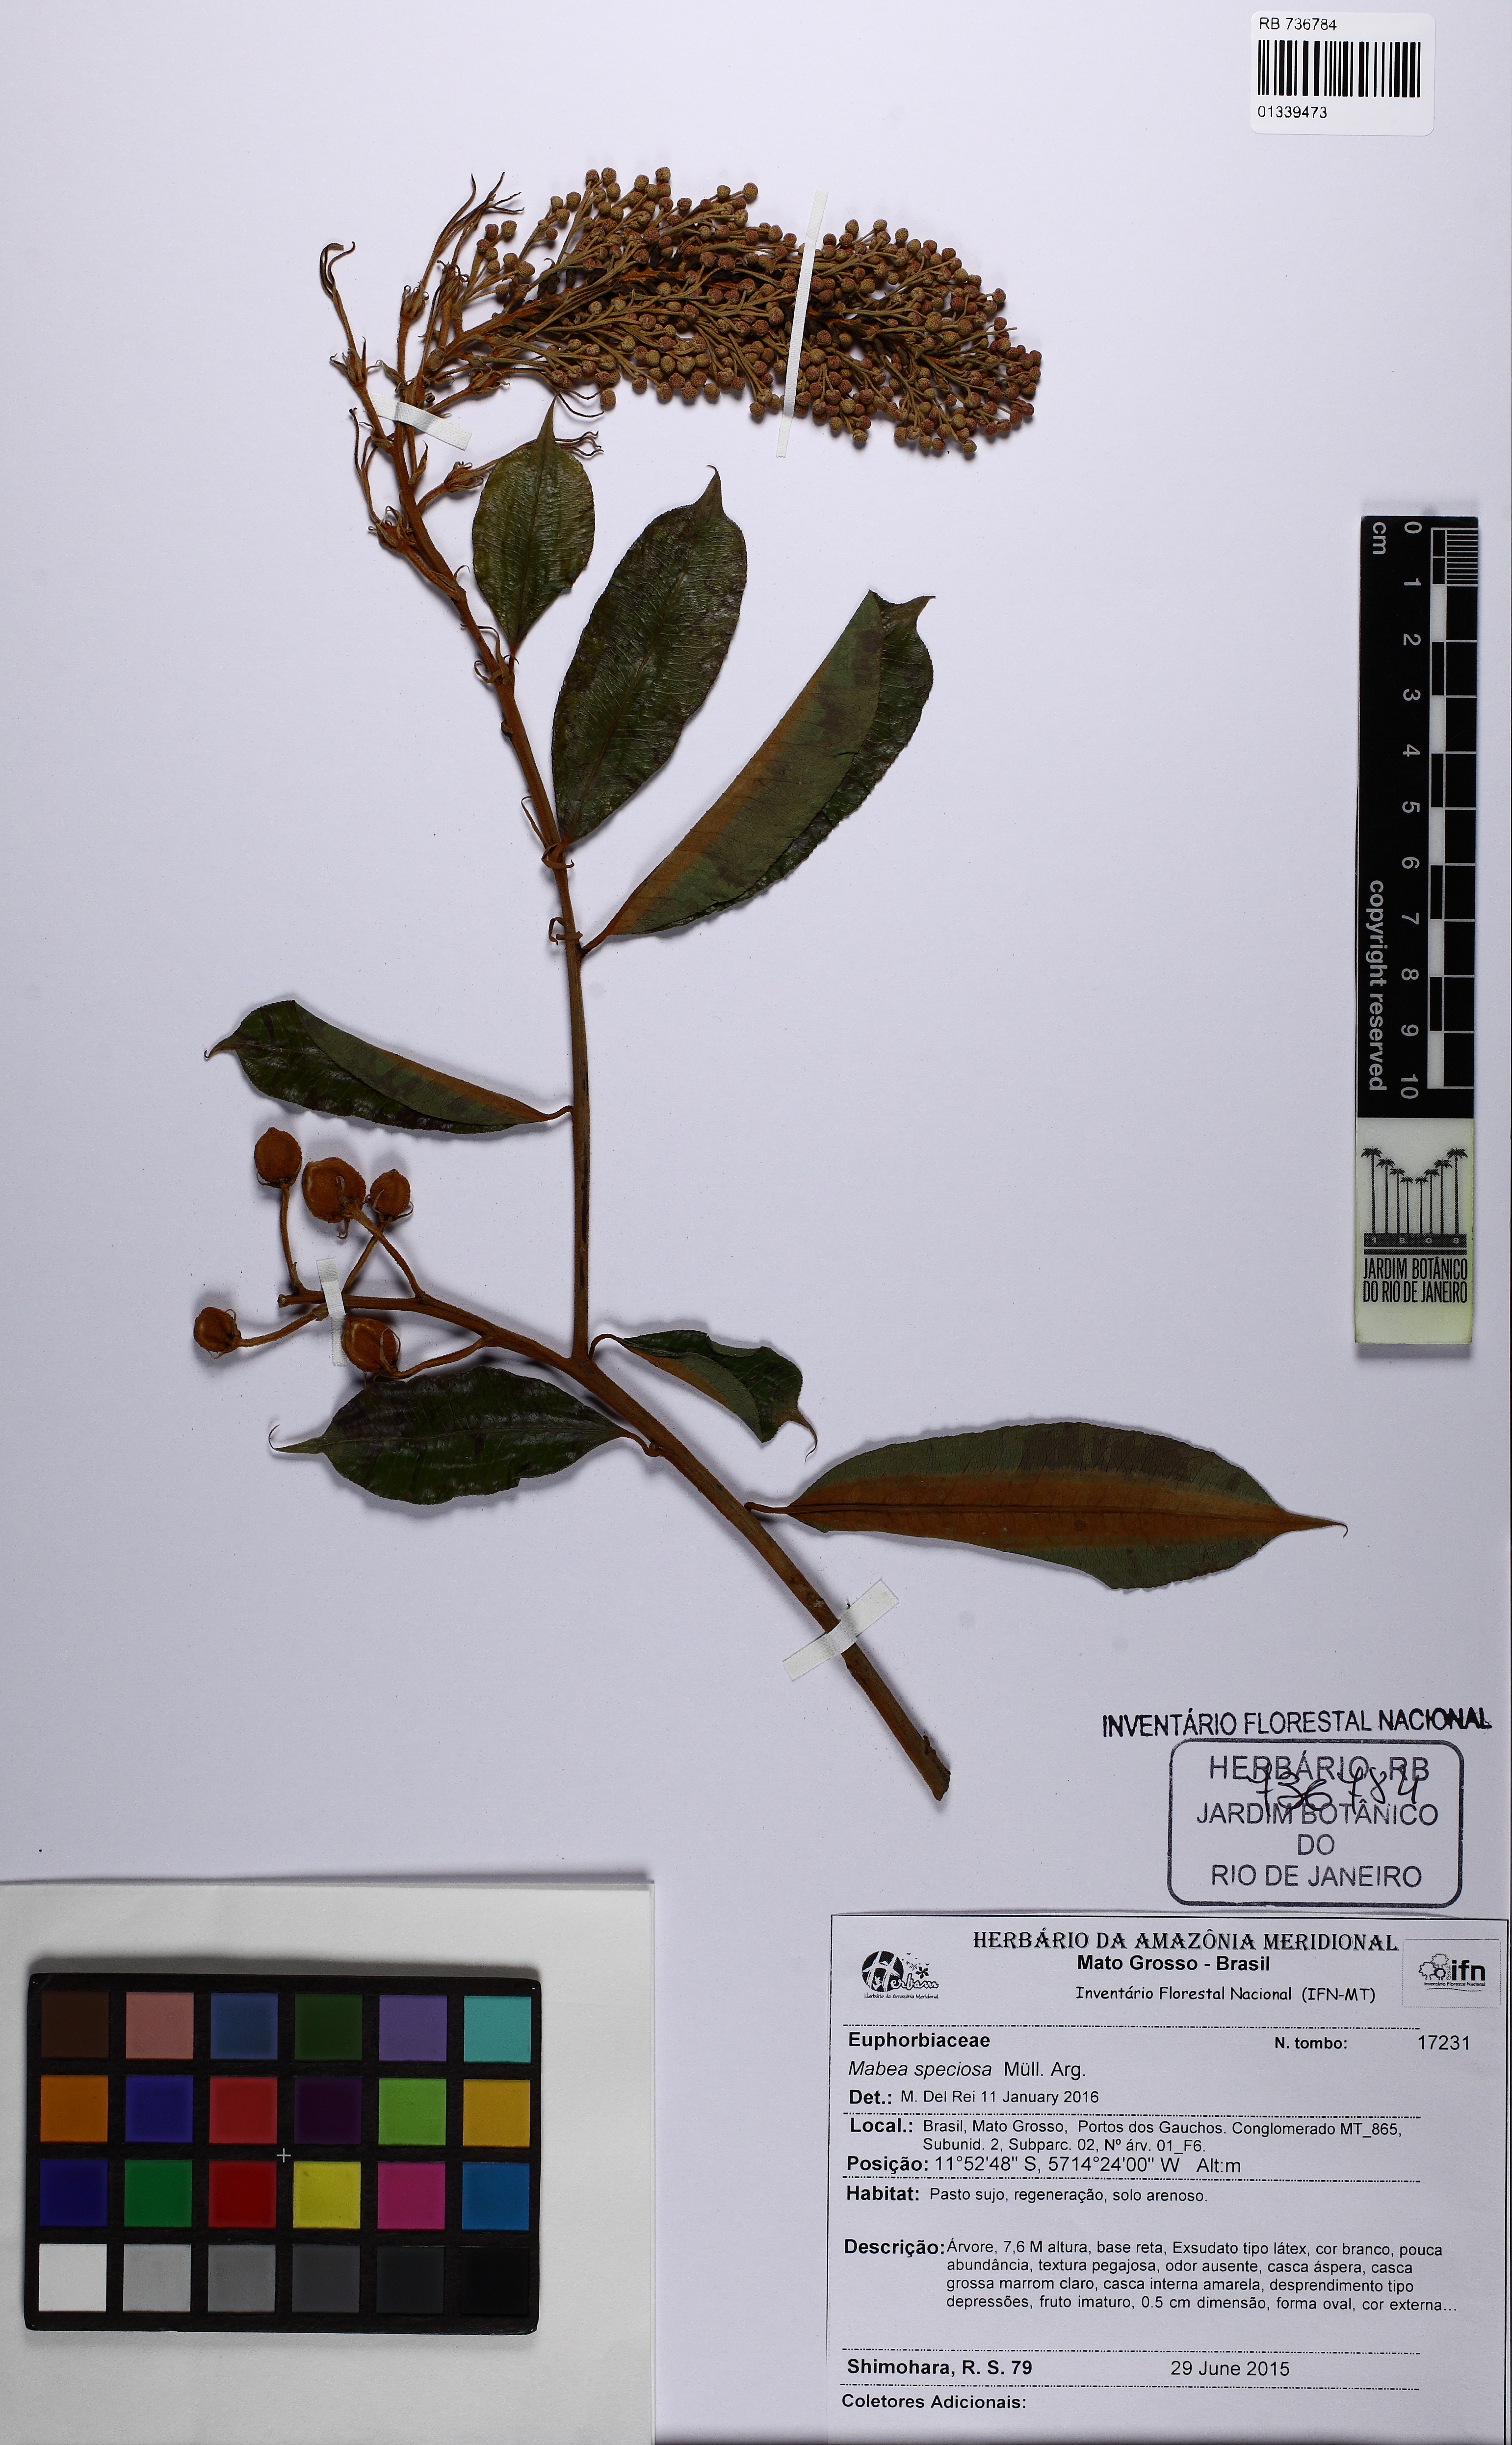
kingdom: Plantae
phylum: Tracheophyta
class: Magnoliopsida
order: Malpighiales
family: Euphorbiaceae
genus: Mabea
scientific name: Mabea speciosa
